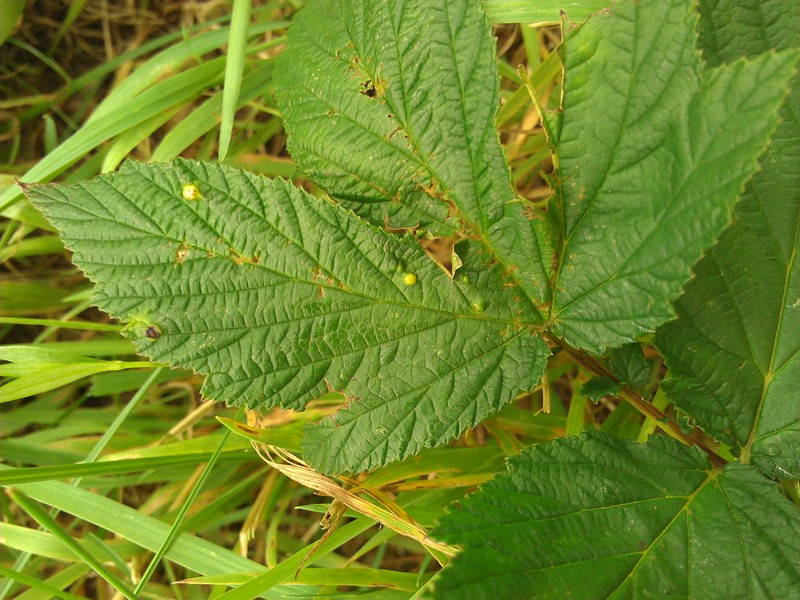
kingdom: Animalia
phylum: Arthropoda
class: Insecta
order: Diptera
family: Cecidomyiidae
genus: Dasineura
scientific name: Dasineura ulmaria
